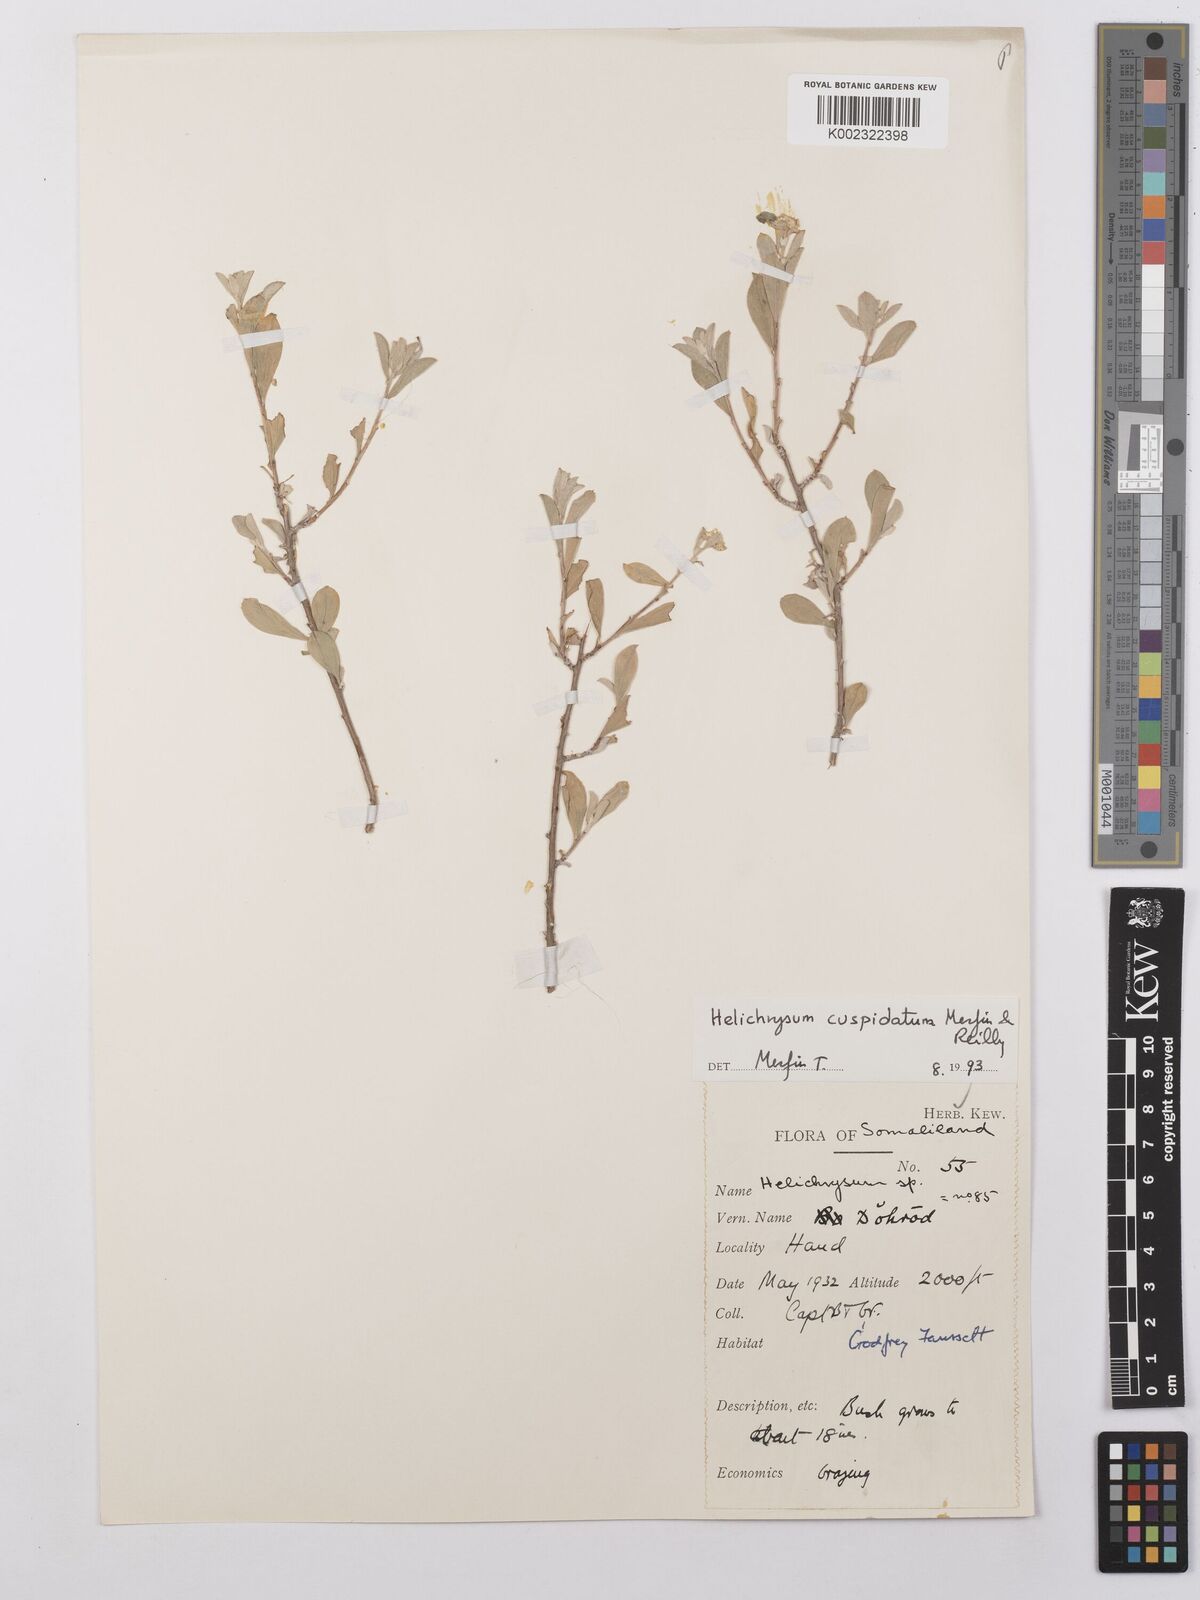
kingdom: Plantae
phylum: Tracheophyta
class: Magnoliopsida
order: Asterales
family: Asteraceae
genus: Helichrysum
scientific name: Helichrysum cuspidatum
